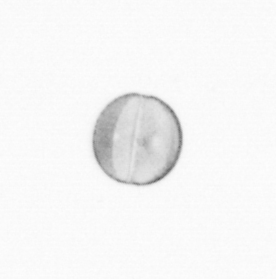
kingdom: Chromista
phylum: Ochrophyta
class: Bacillariophyceae
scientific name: Bacillariophyceae
